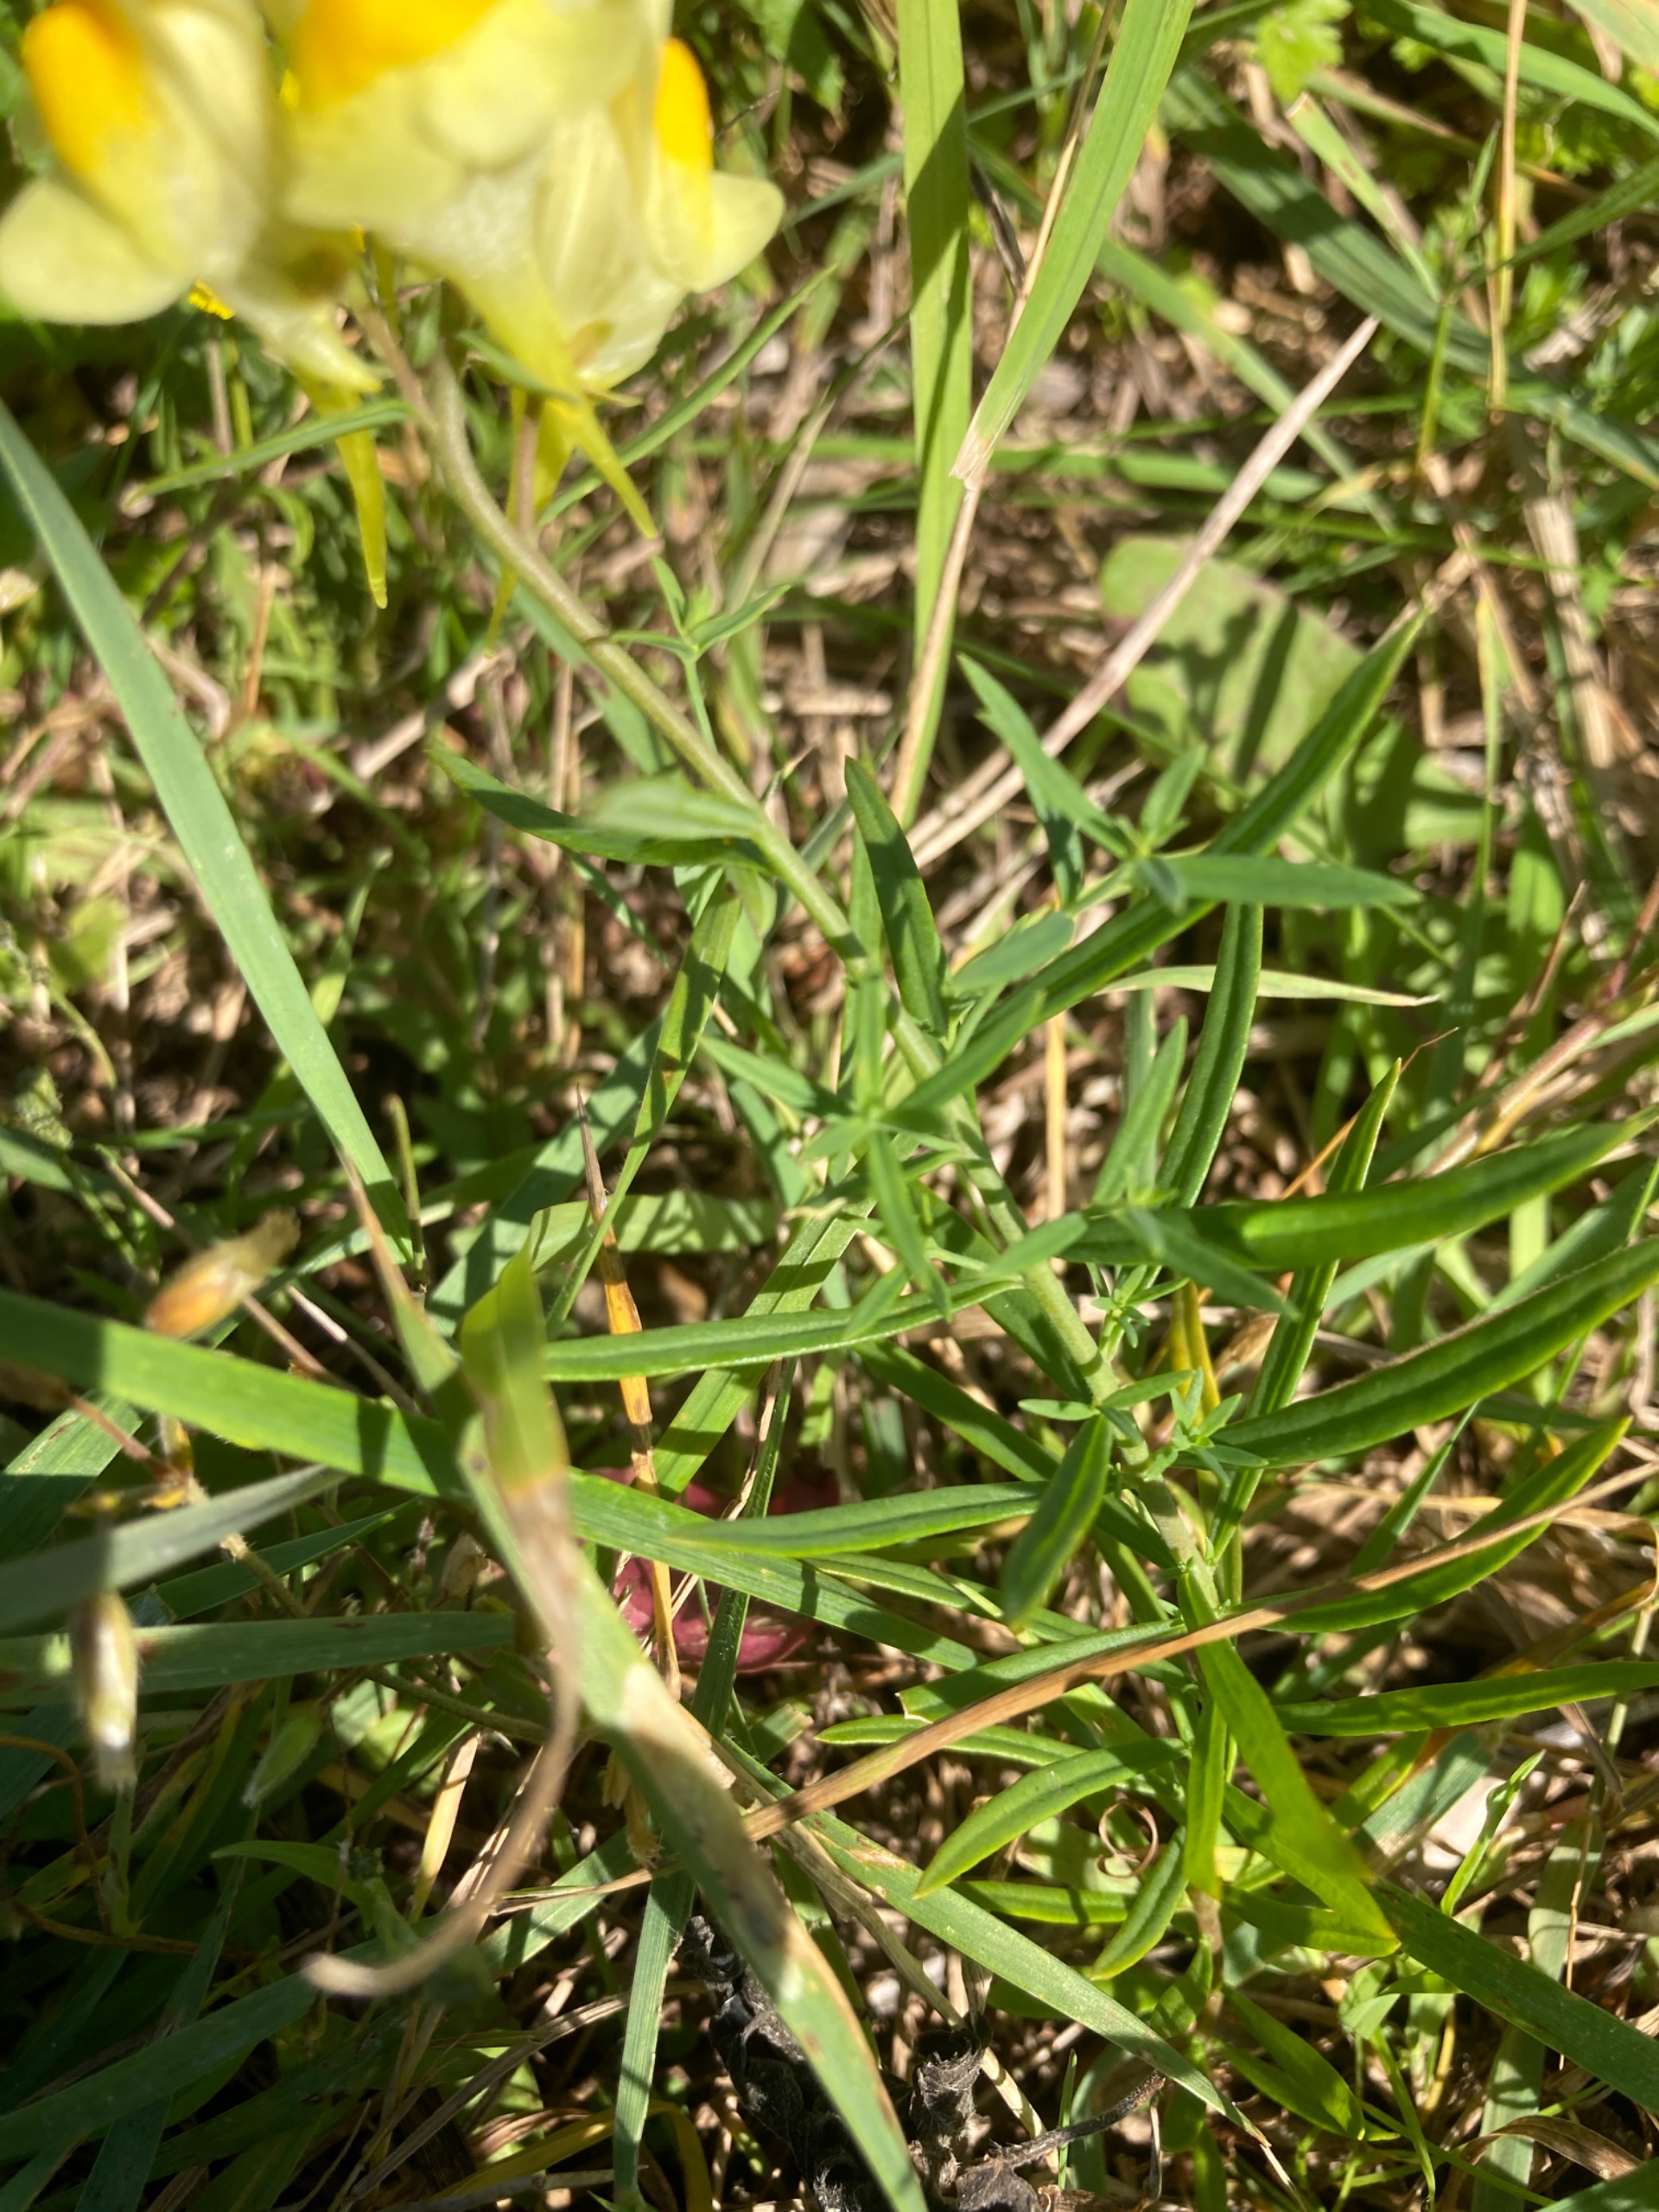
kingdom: Plantae
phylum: Tracheophyta
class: Magnoliopsida
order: Lamiales
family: Plantaginaceae
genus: Linaria
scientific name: Linaria vulgaris
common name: Almindelig torskemund
